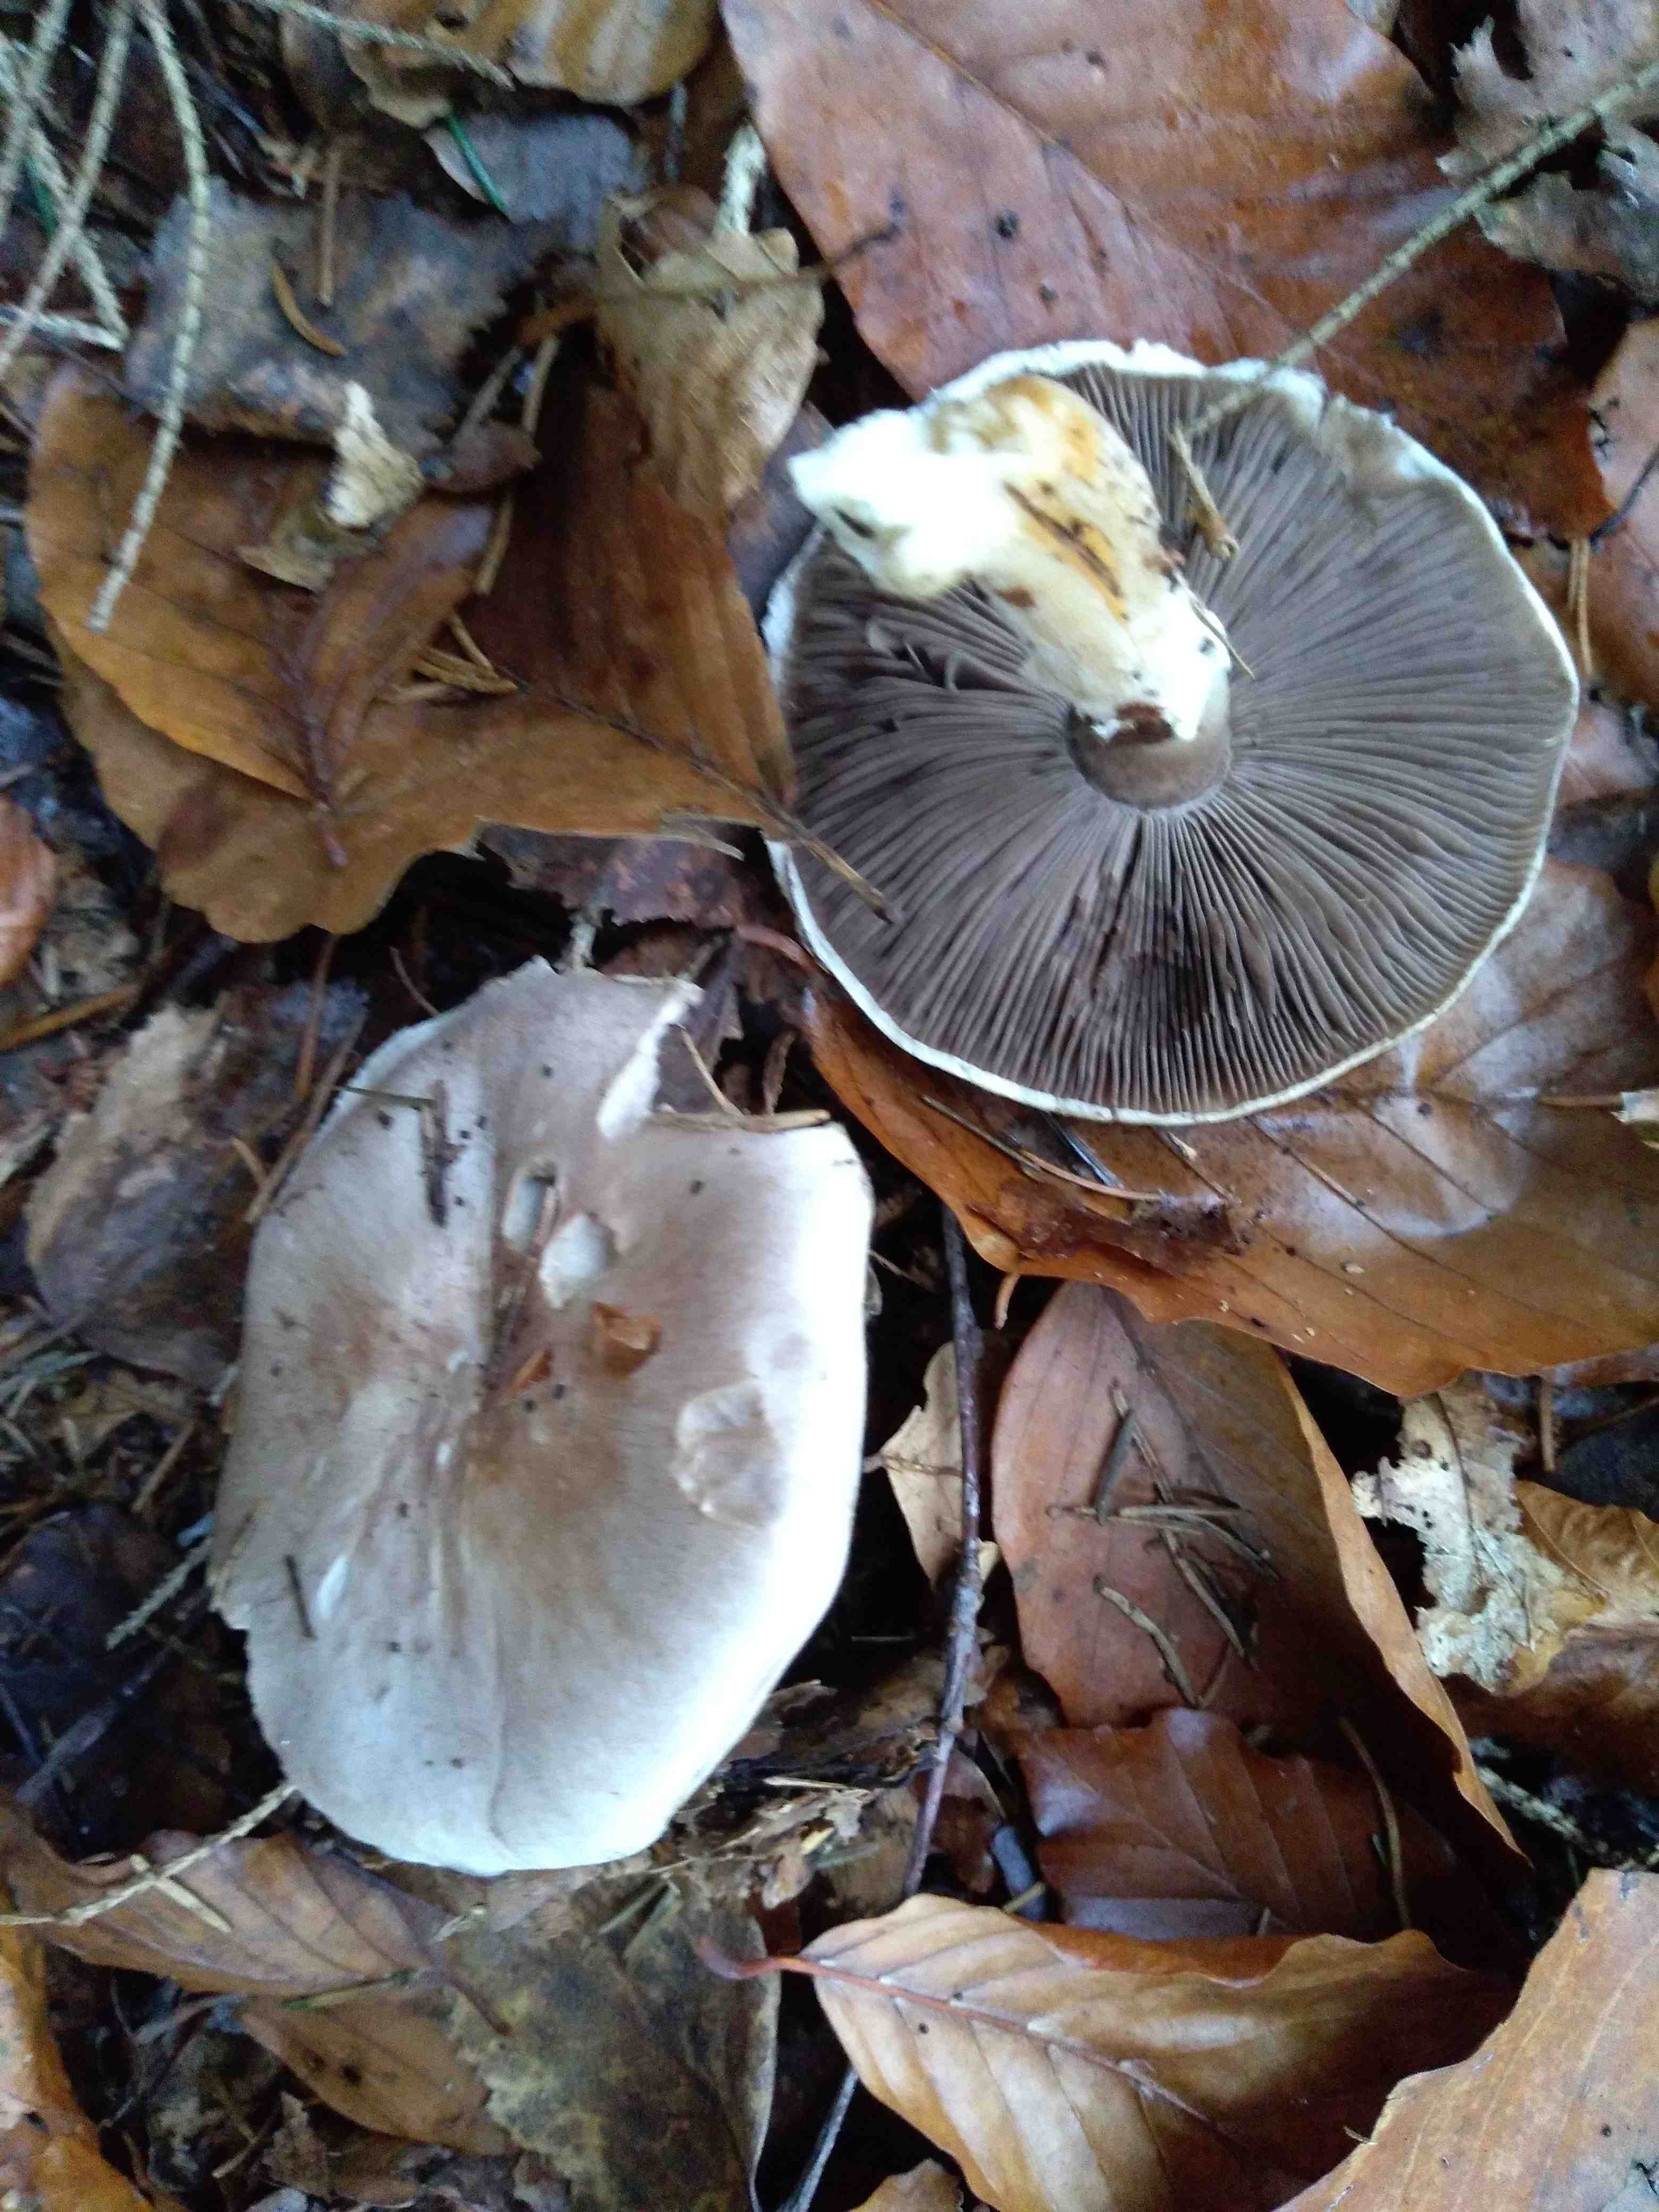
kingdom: Fungi
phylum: Basidiomycota
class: Agaricomycetes
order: Agaricales
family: Agaricaceae
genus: Agaricus
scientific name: Agaricus
